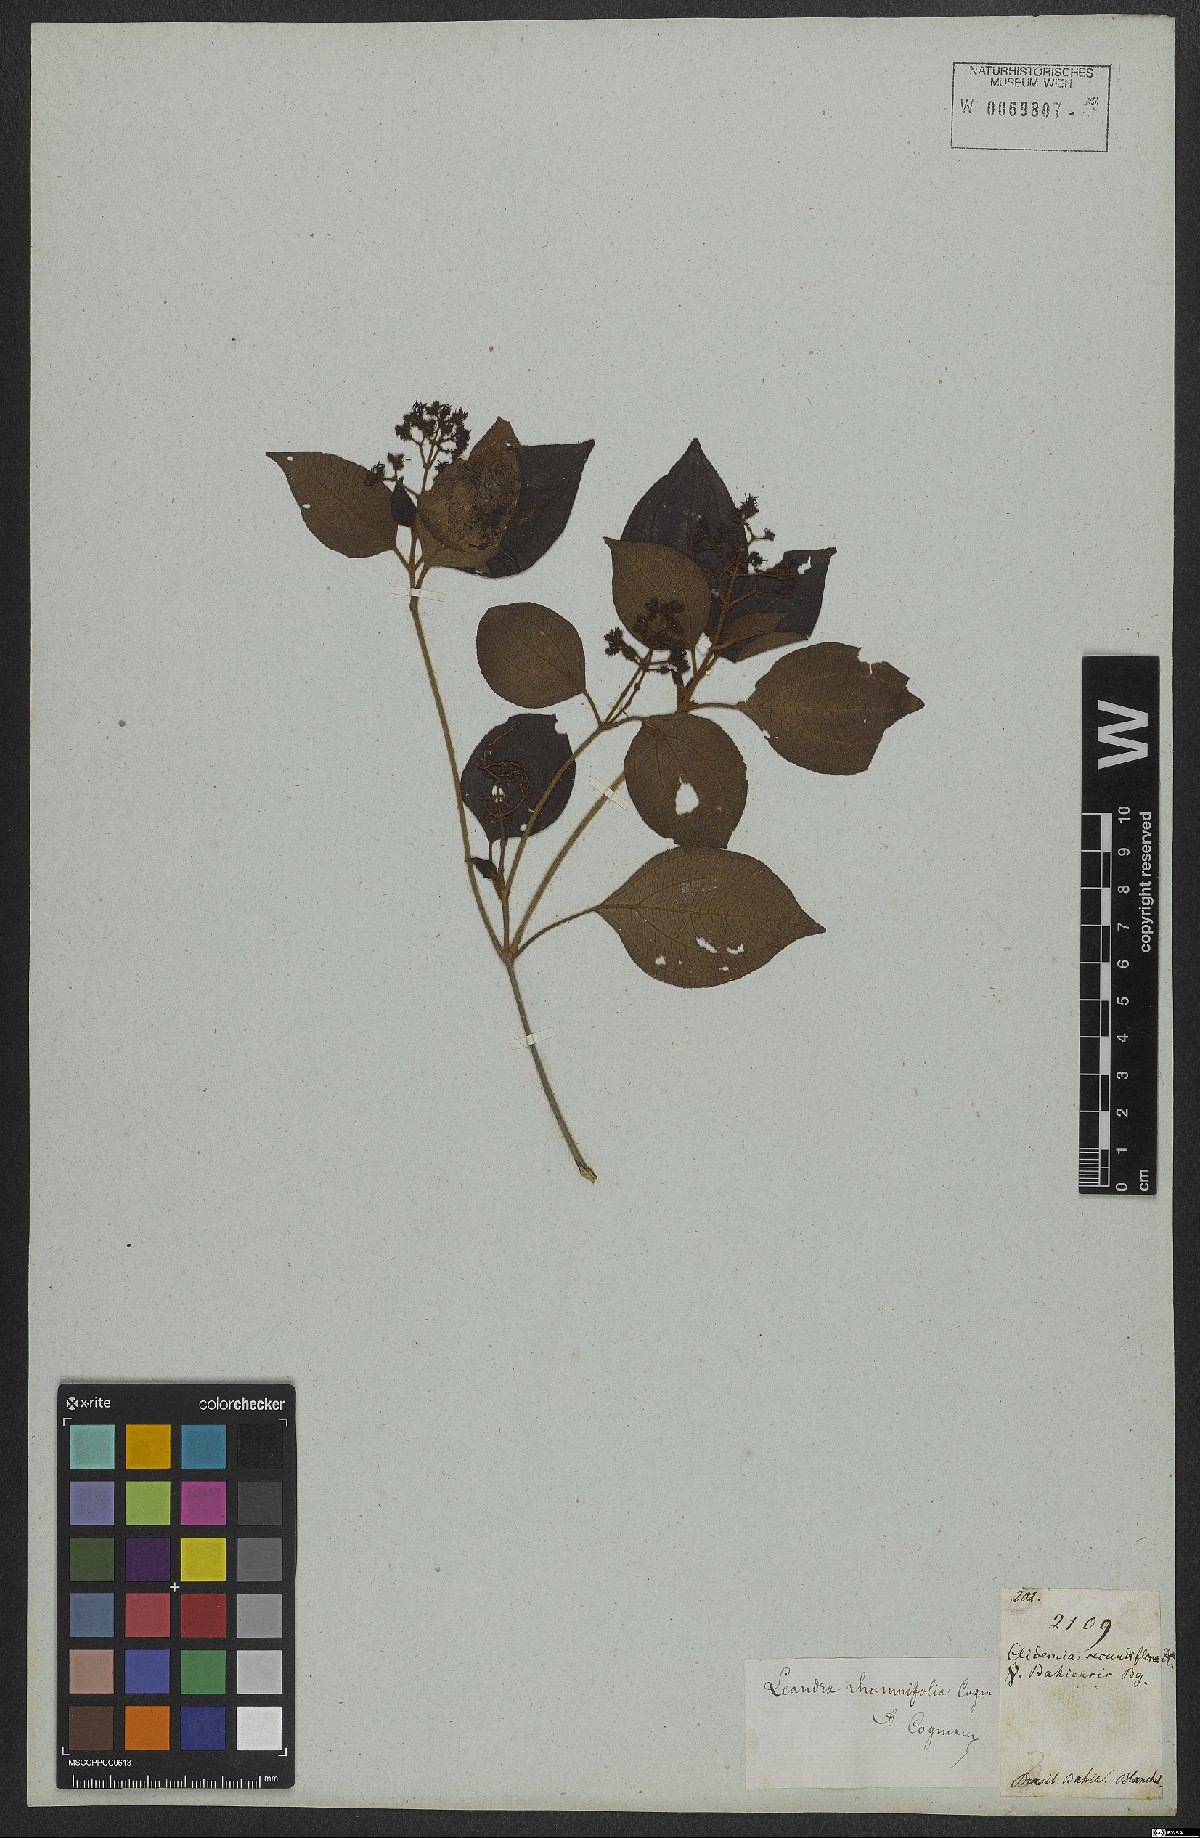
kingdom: Plantae
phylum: Tracheophyta
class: Magnoliopsida
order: Myrtales
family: Melastomataceae
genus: Miconia
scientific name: Miconia rhamnifolia
